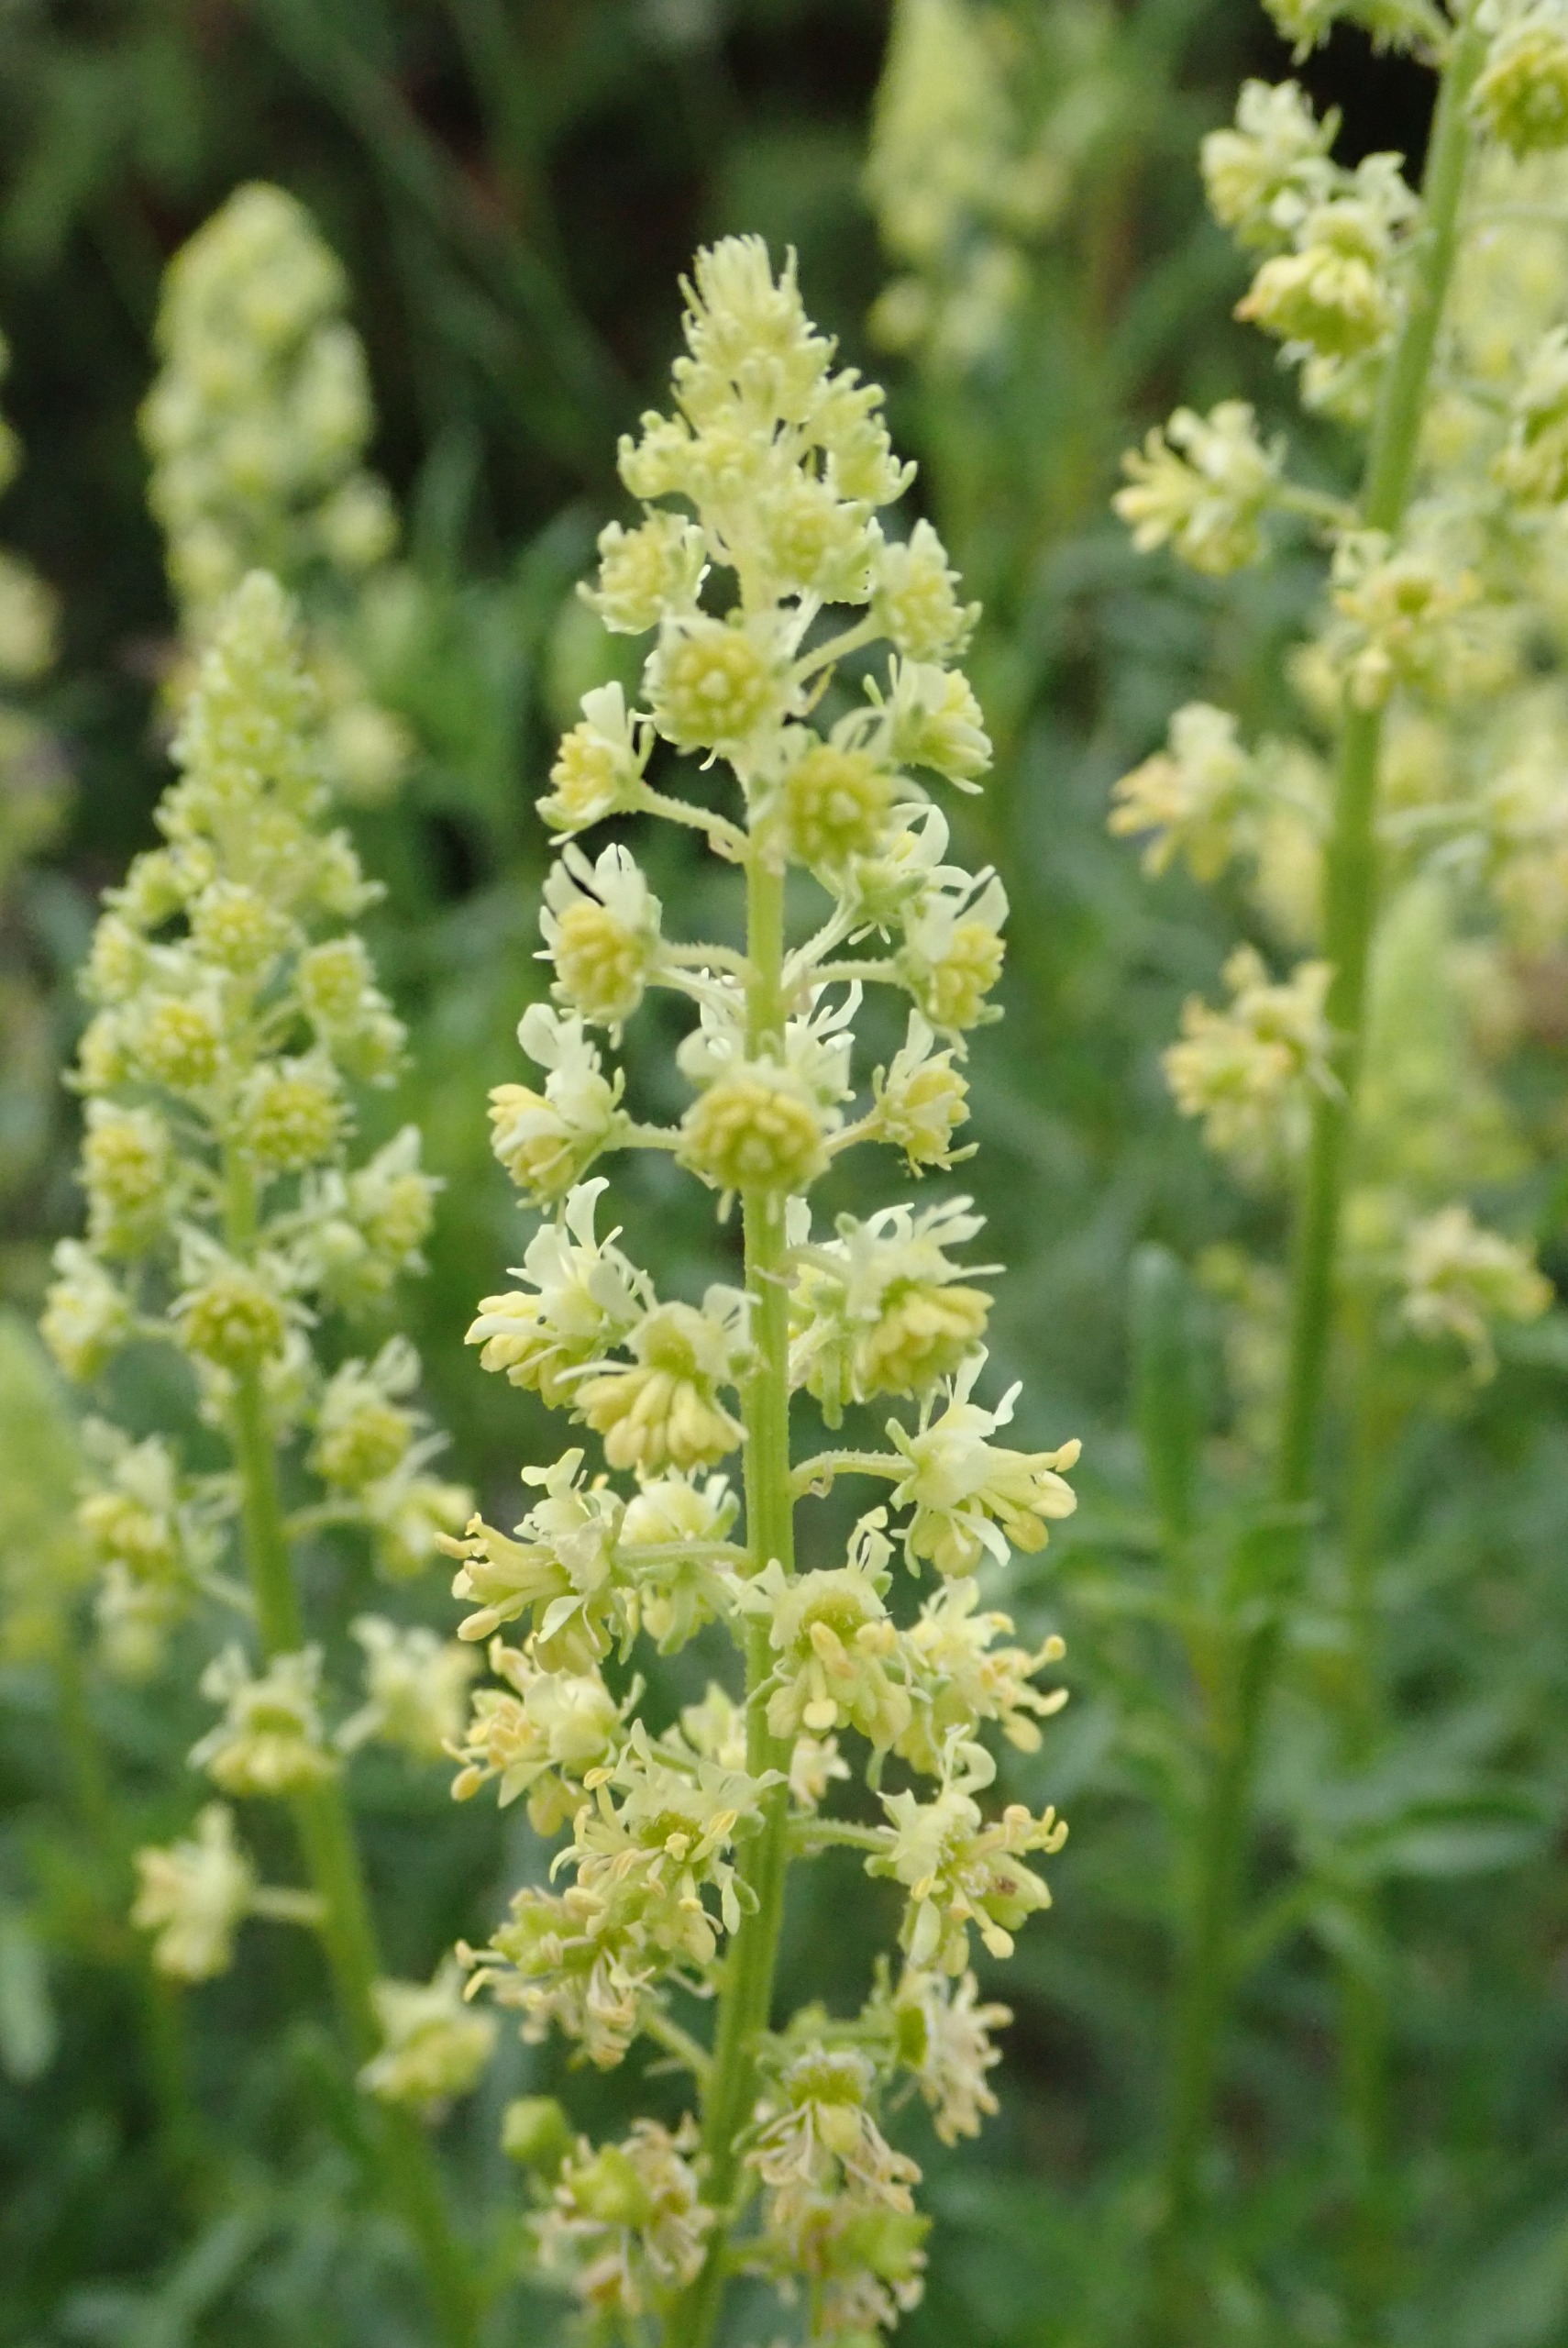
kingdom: Plantae
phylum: Tracheophyta
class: Magnoliopsida
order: Brassicales
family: Resedaceae
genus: Reseda
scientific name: Reseda lutea
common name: Gul reseda
